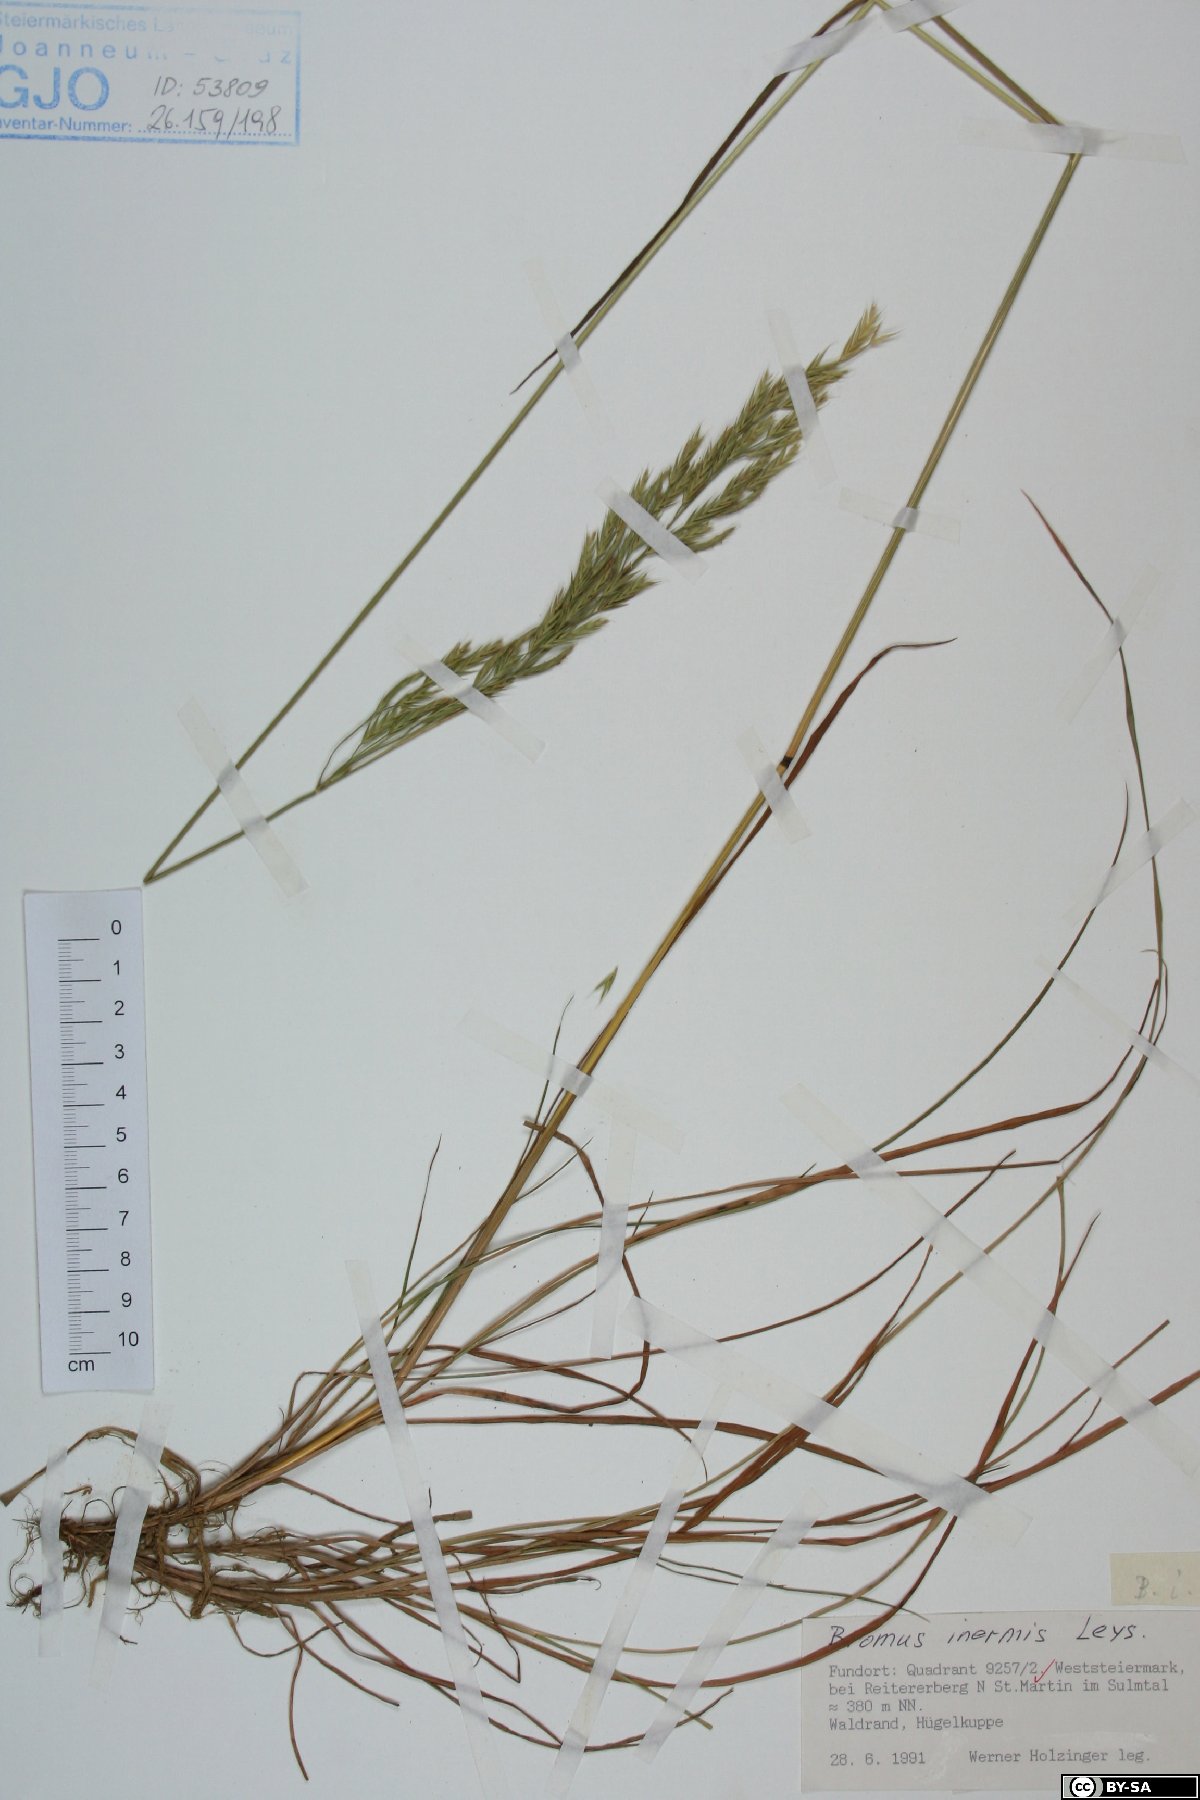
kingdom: Plantae
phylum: Tracheophyta
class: Liliopsida
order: Poales
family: Poaceae
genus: Bromus
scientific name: Bromus inermis
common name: Smooth brome
